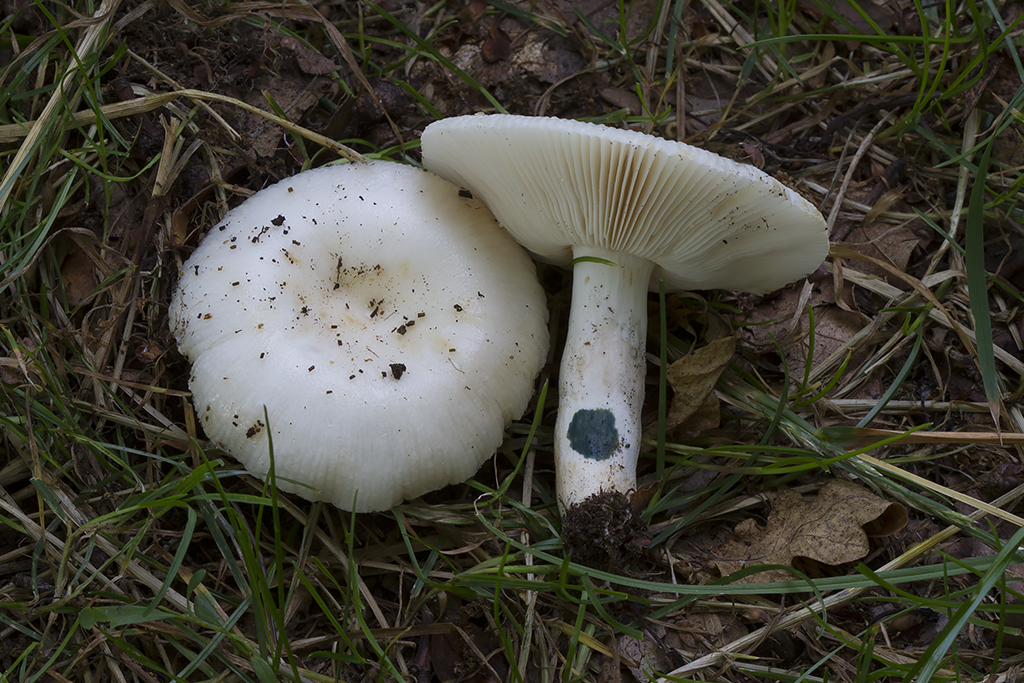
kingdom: Fungi
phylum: Basidiomycota
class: Agaricomycetes
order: Russulales
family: Russulaceae
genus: Russula
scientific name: Russula amoenolens
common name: skarp kam-skørhat
